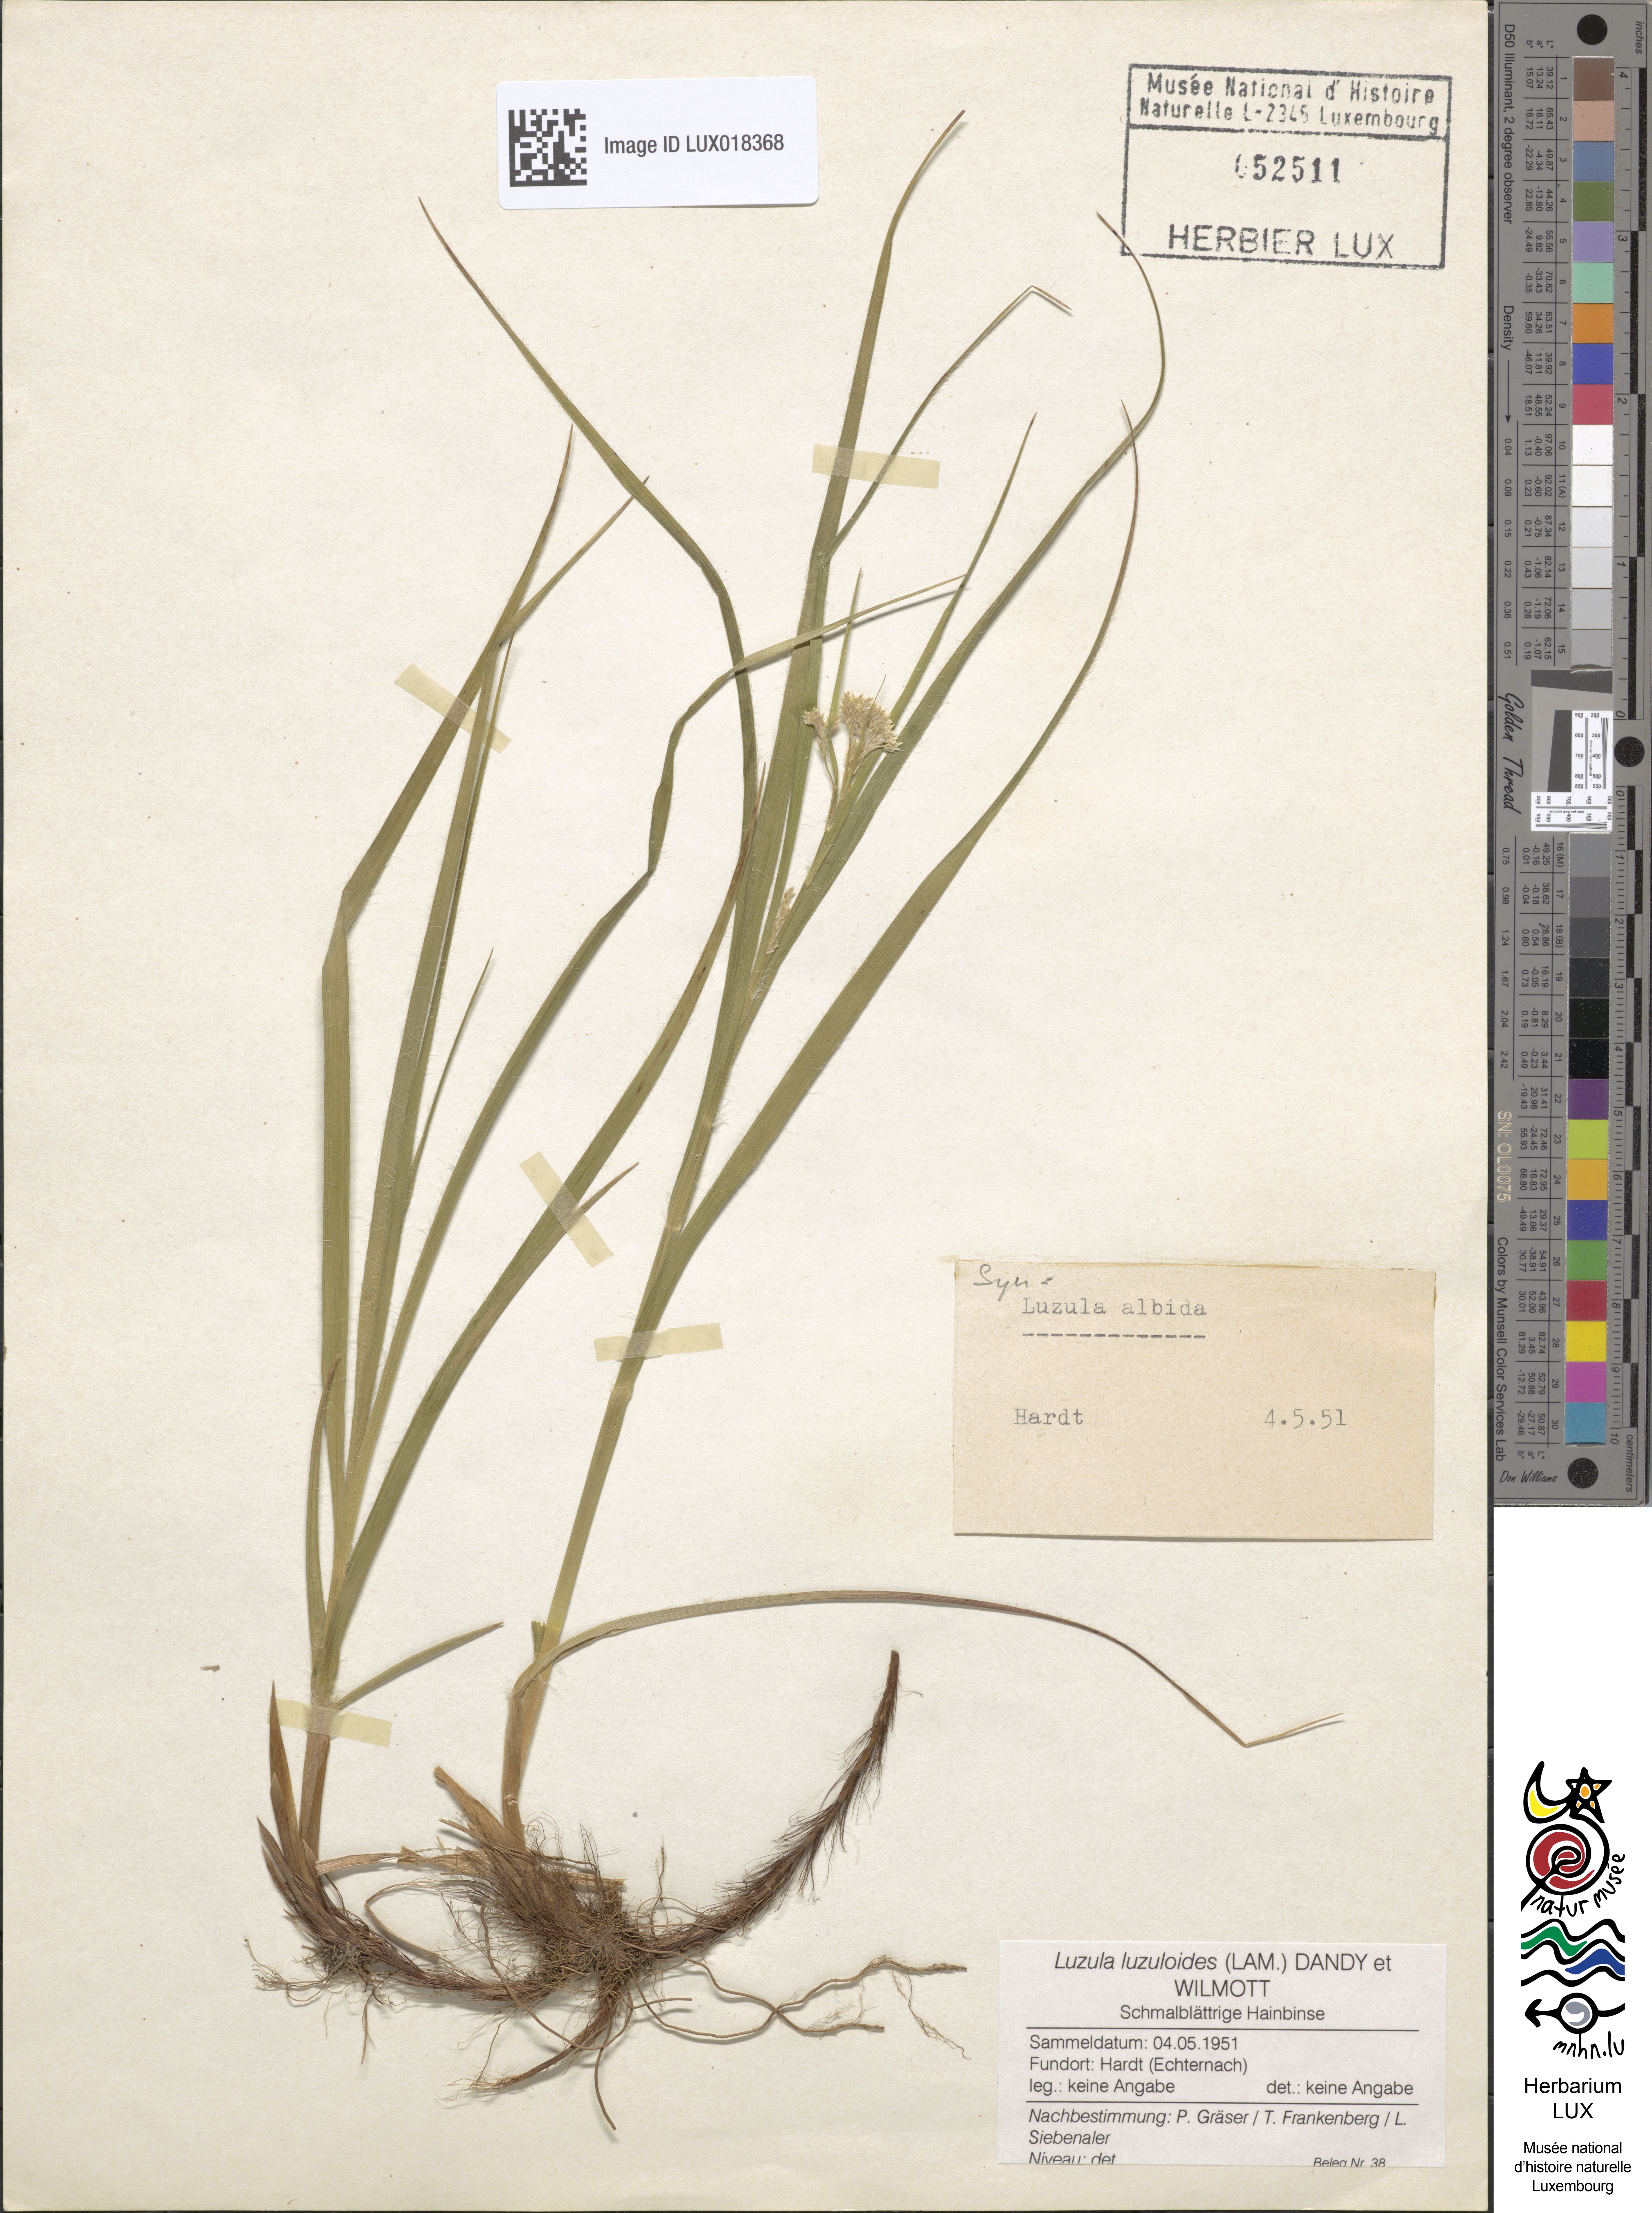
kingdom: Plantae
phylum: Tracheophyta
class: Liliopsida
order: Poales
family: Juncaceae
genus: Luzula
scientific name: Luzula luzuloides
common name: White wood-rush
